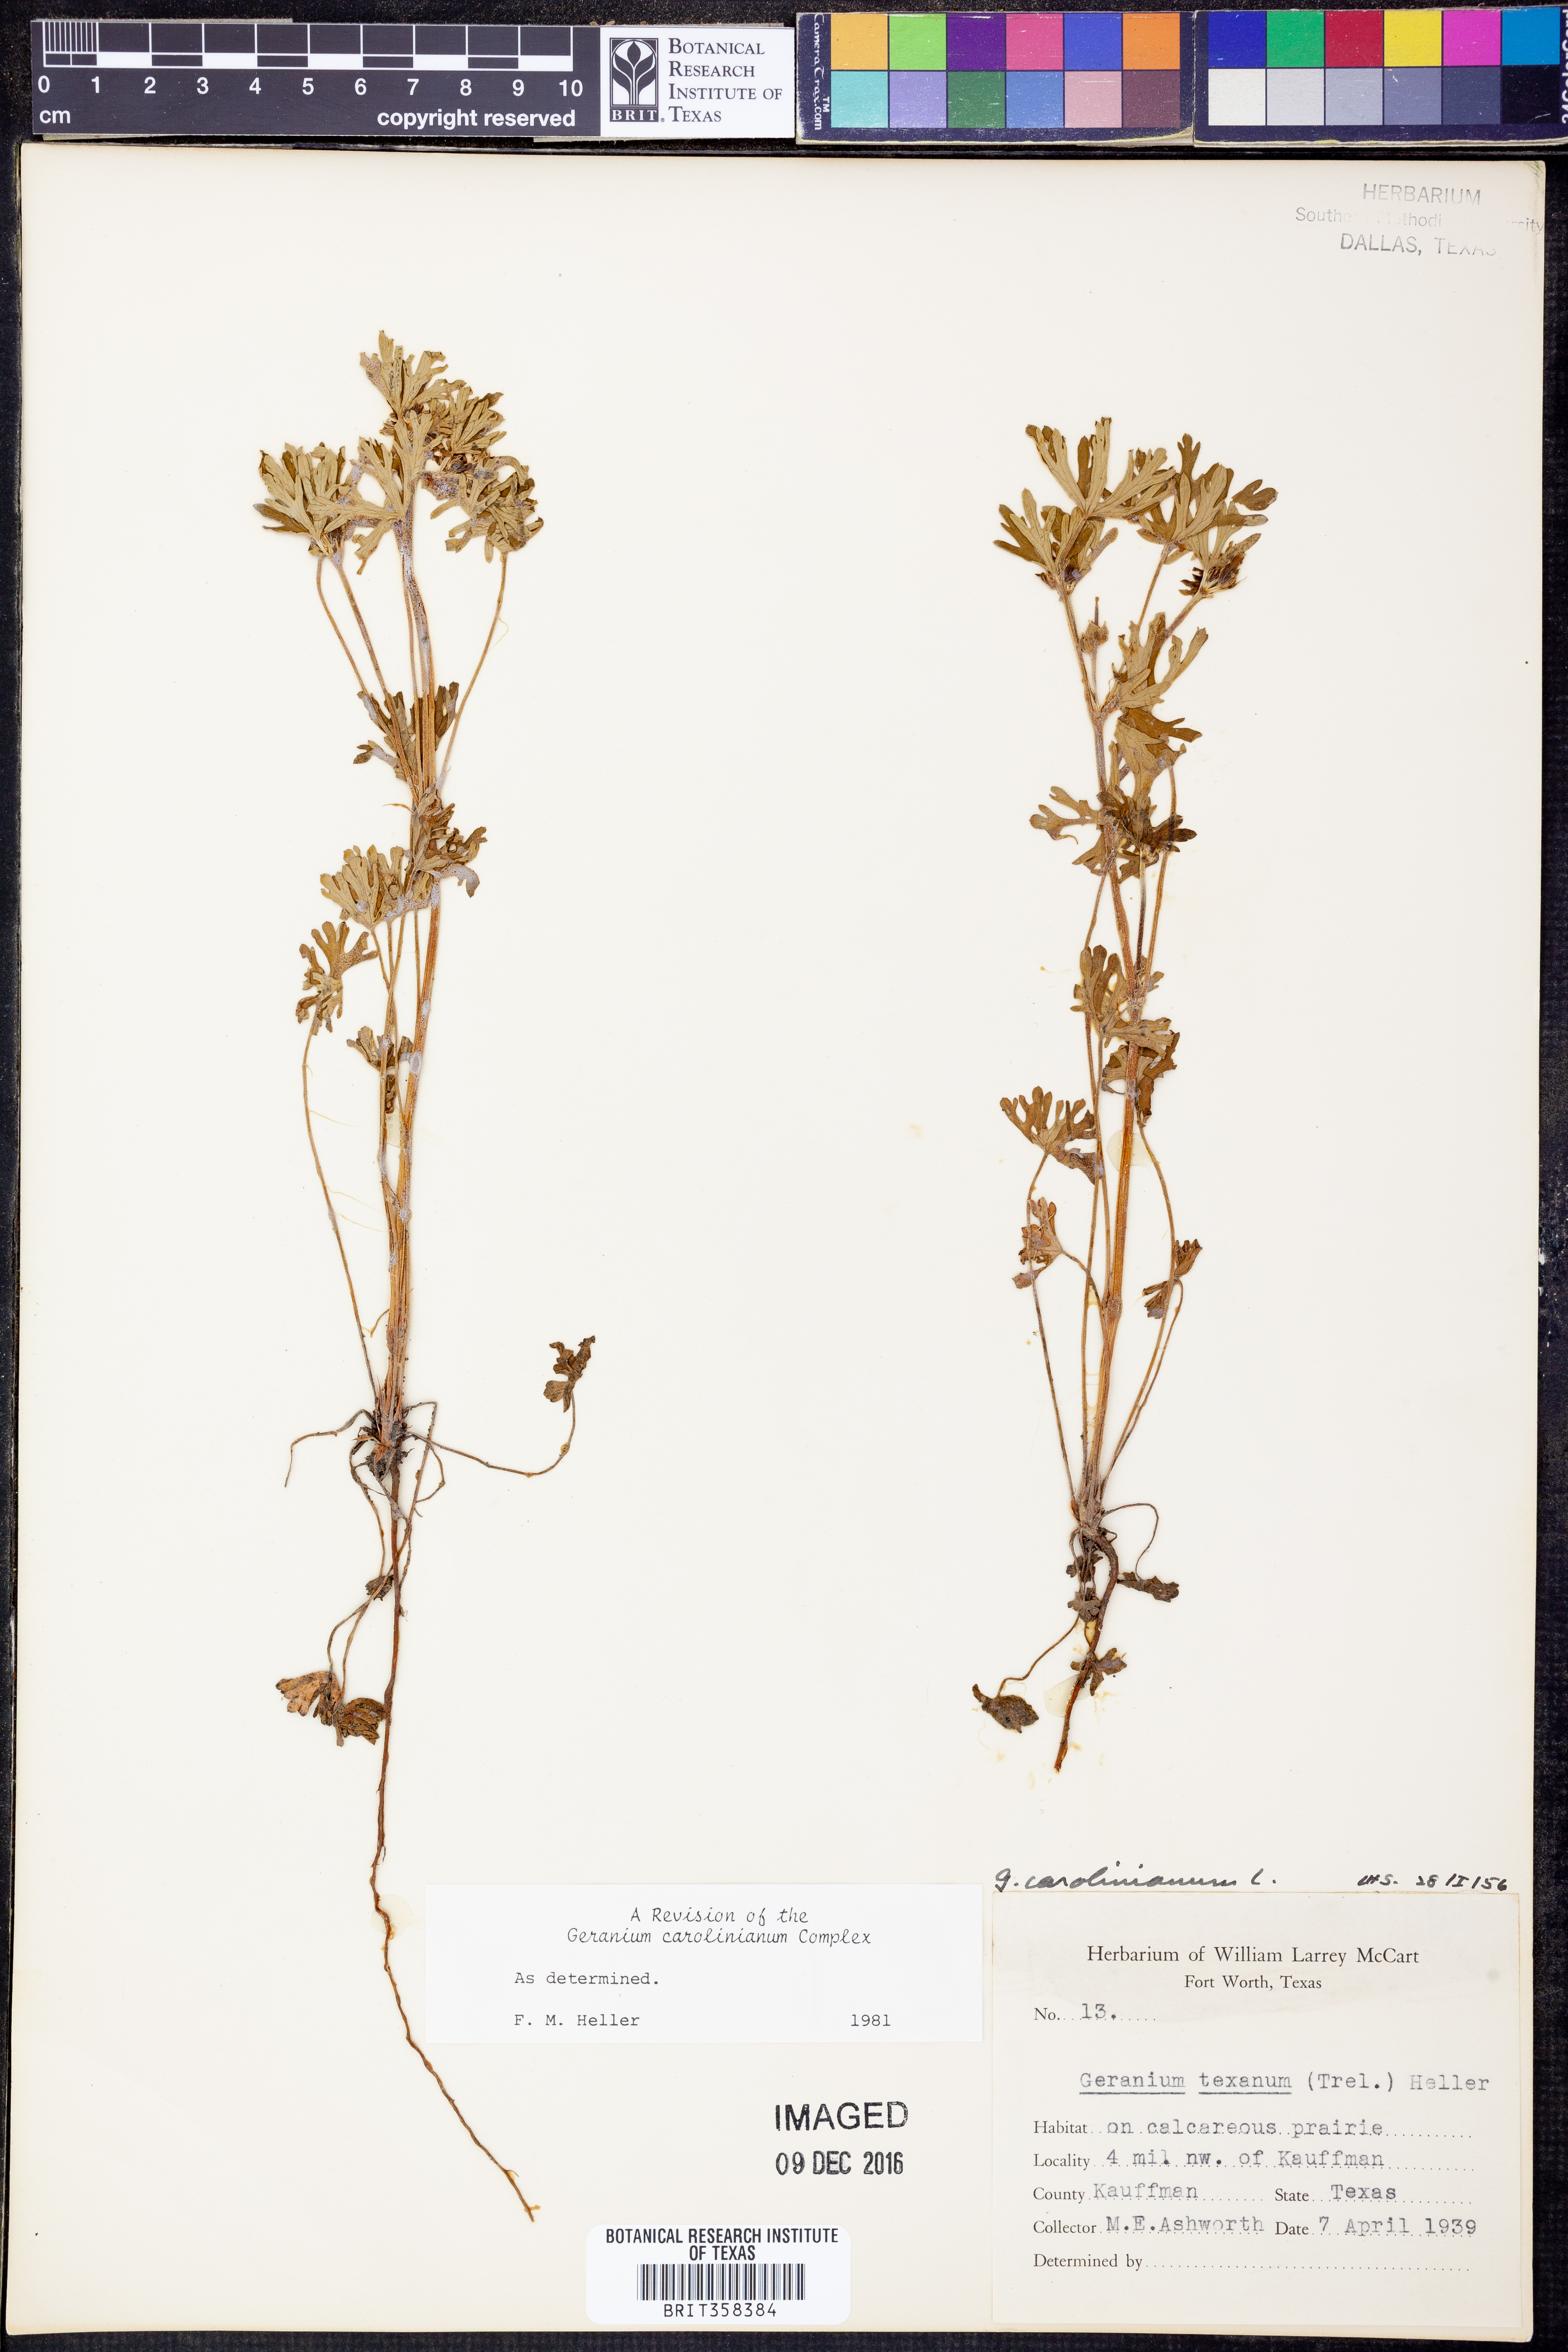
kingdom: Plantae
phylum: Tracheophyta
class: Magnoliopsida
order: Geraniales
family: Geraniaceae
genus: Geranium
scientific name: Geranium carolinianum
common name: Carolina crane's-bill
